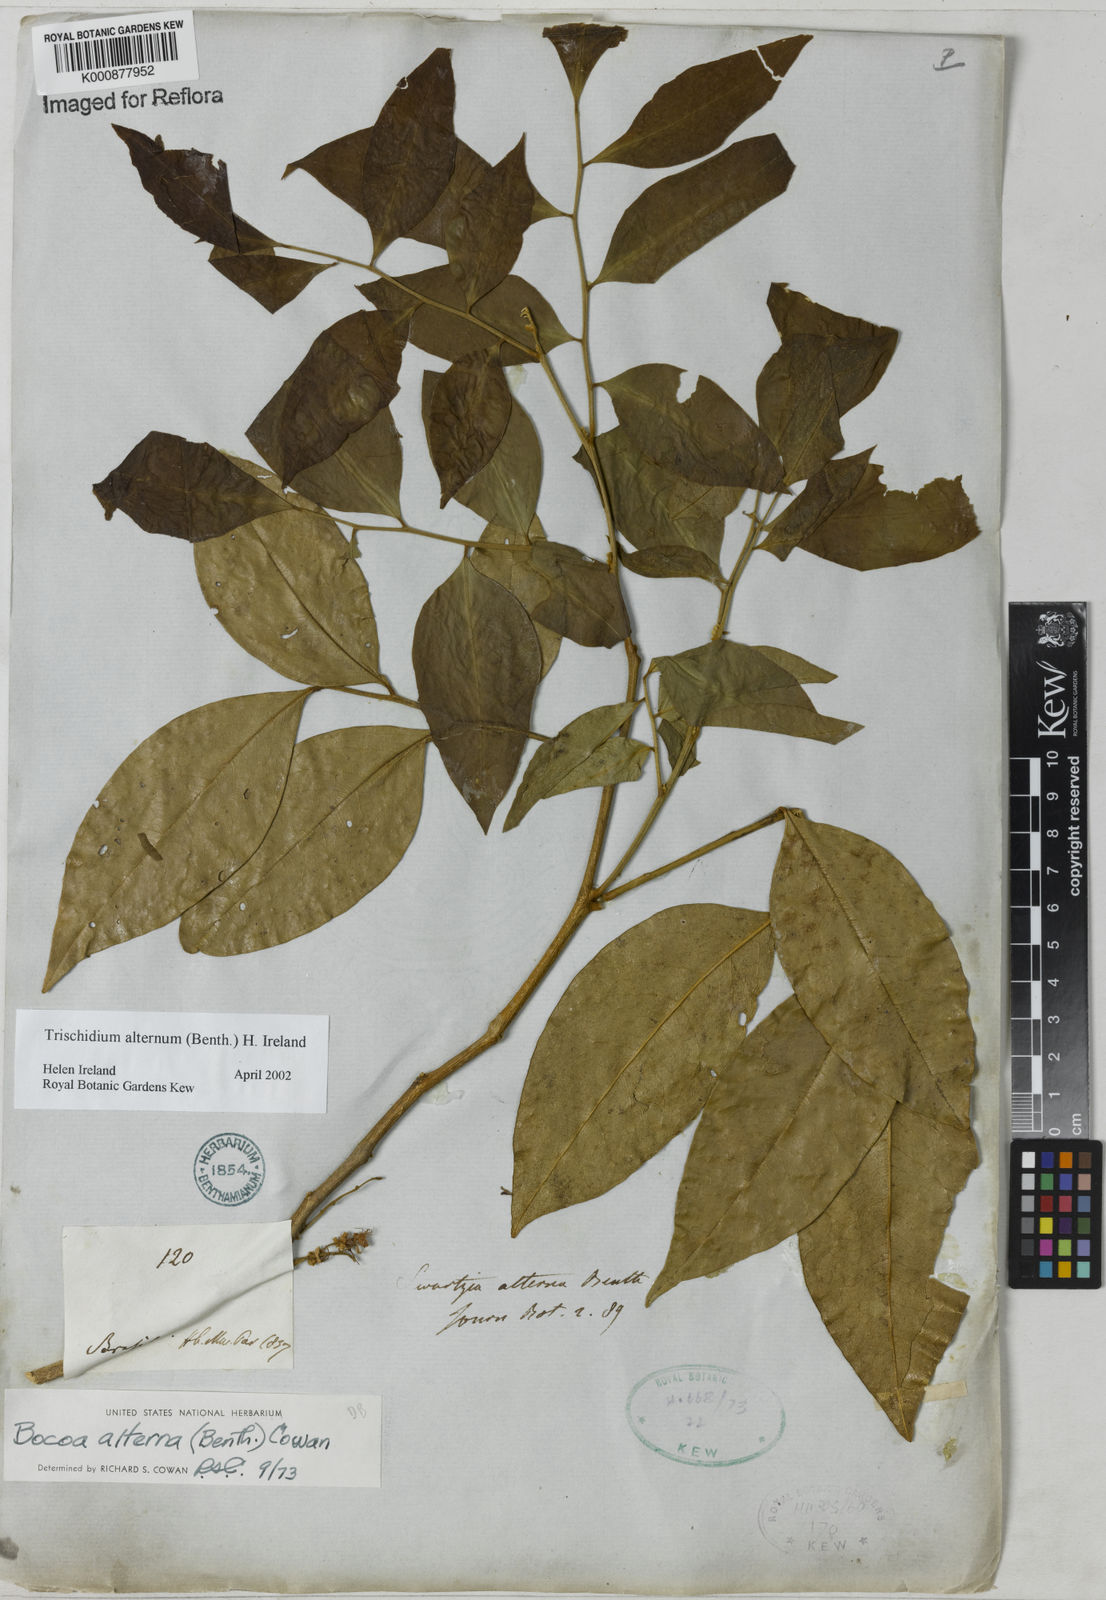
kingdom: Plantae
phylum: Tracheophyta
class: Magnoliopsida
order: Fabales
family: Fabaceae
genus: Trischidium
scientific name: Trischidium alternum
